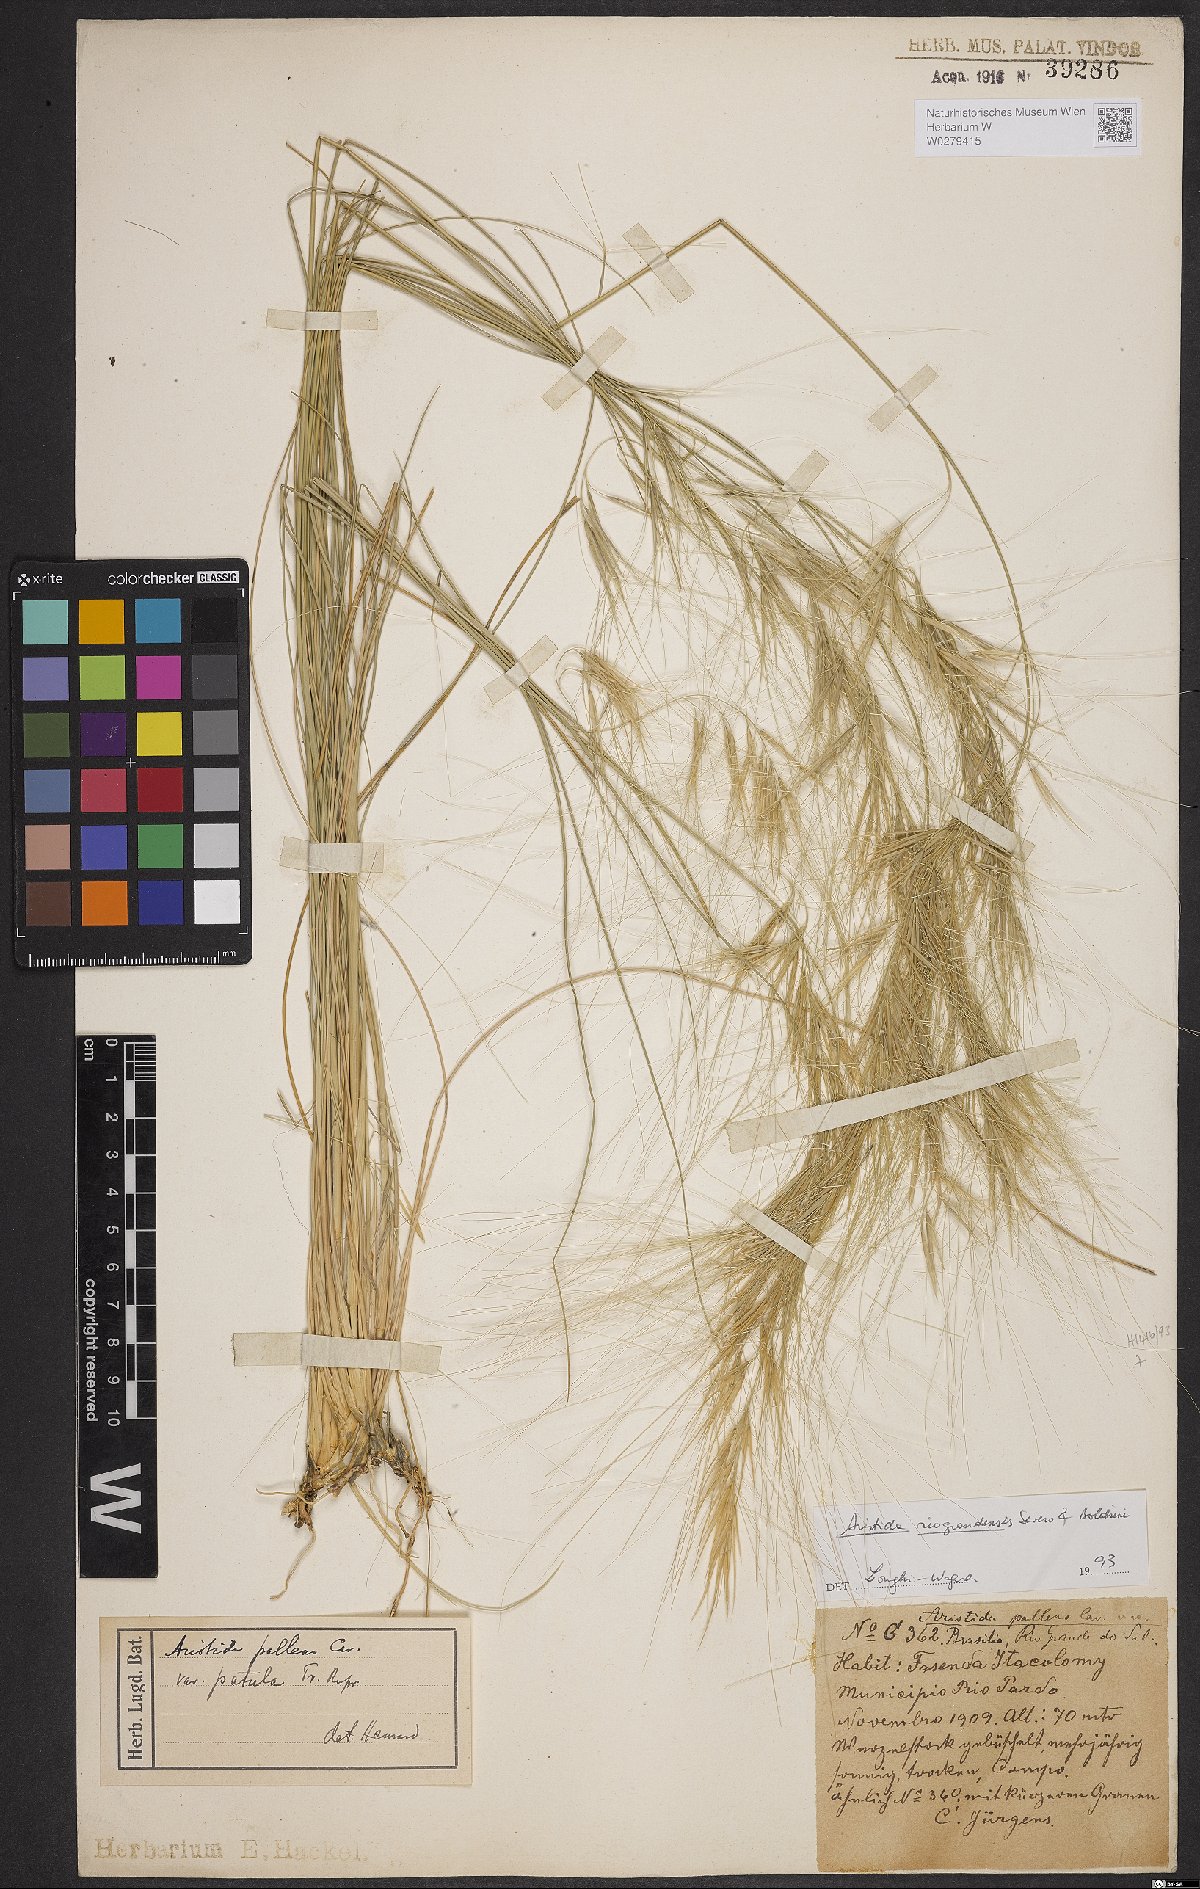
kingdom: Plantae
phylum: Tracheophyta
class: Liliopsida
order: Poales
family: Poaceae
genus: Aristida
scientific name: Aristida riograndensis
